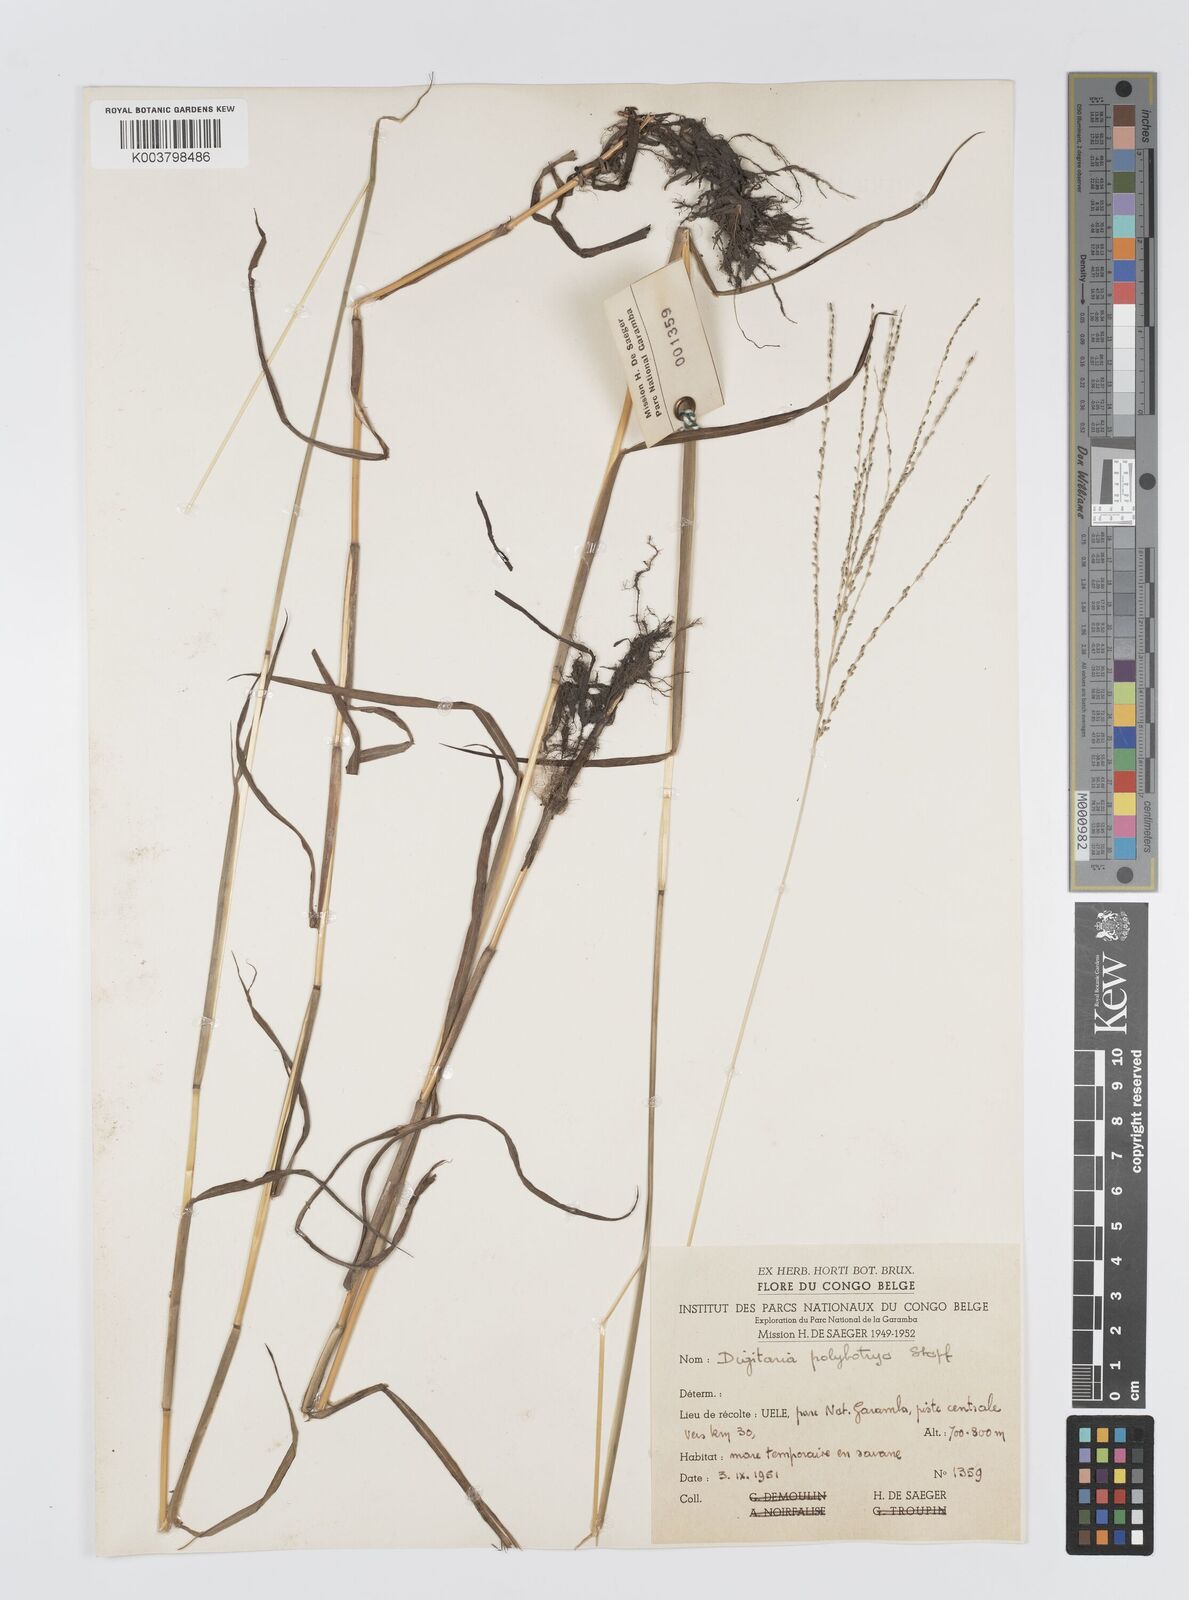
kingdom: Plantae
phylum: Tracheophyta
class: Liliopsida
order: Poales
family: Poaceae
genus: Digitaria
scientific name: Digitaria leptorhachis
